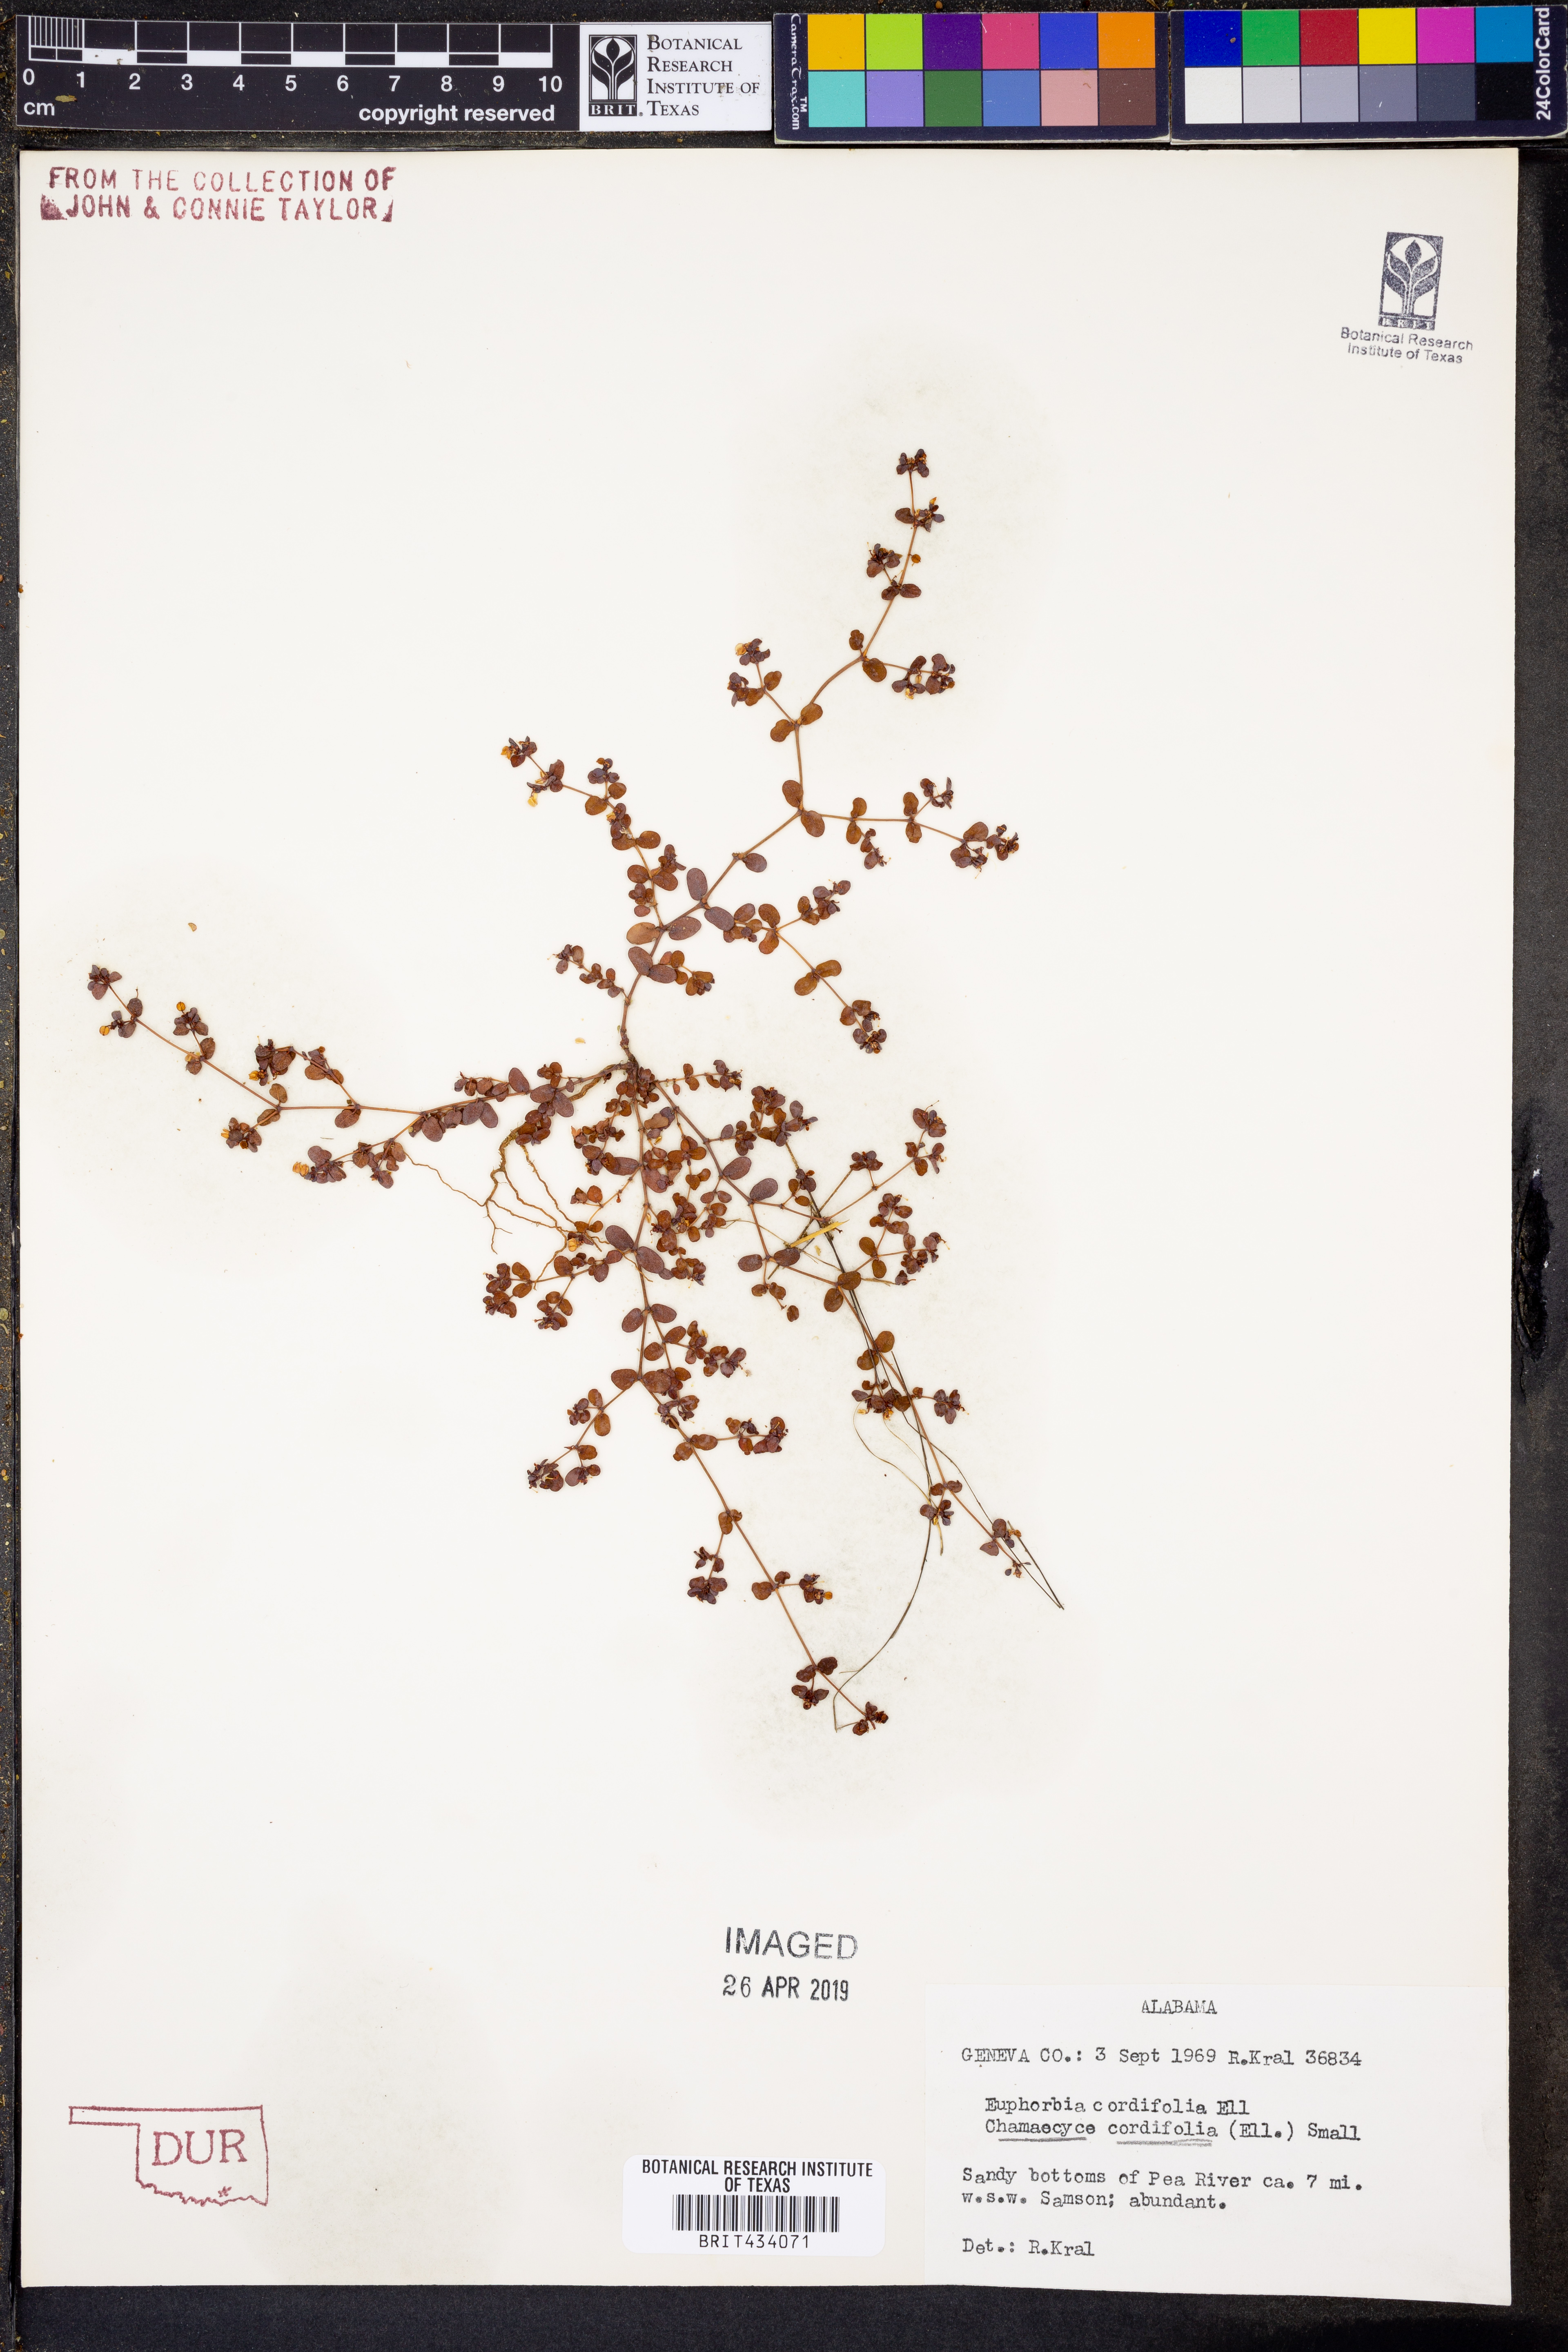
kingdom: Plantae
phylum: Tracheophyta
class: Magnoliopsida
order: Malpighiales
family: Euphorbiaceae
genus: Euphorbia
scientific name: Euphorbia cordifolia
